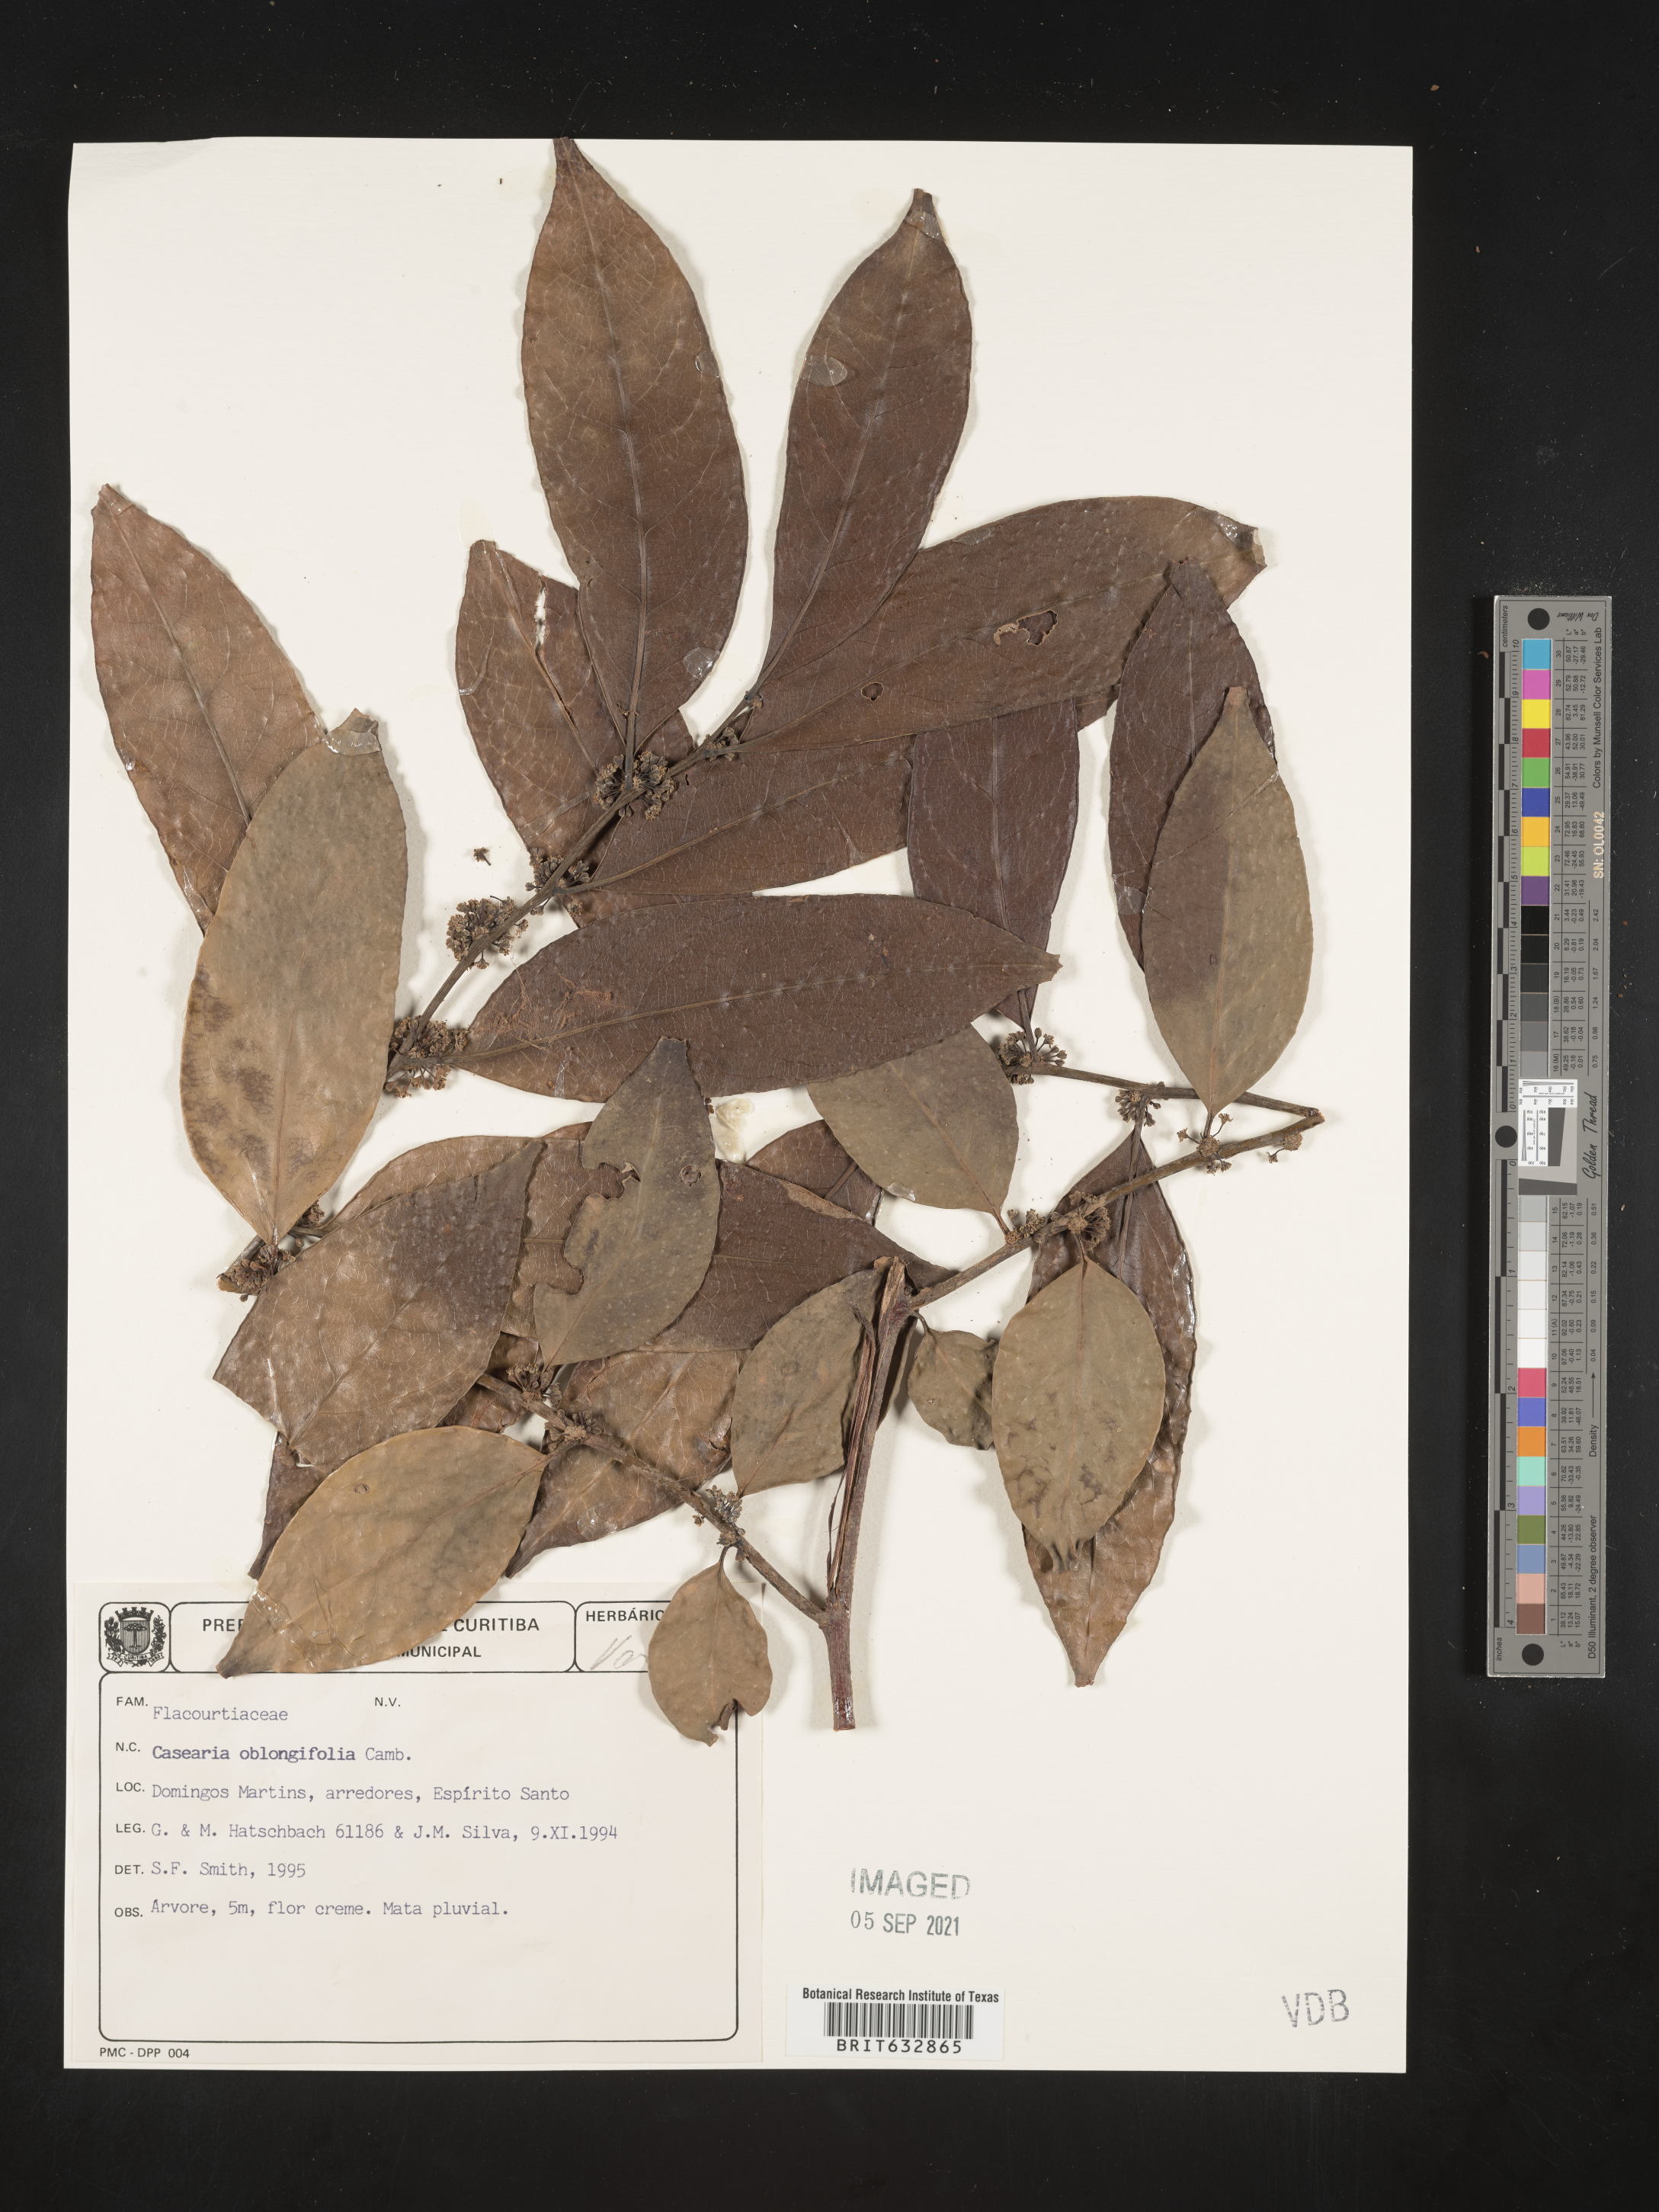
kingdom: Plantae
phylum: Tracheophyta
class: Magnoliopsida
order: Malpighiales
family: Salicaceae
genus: Casearia
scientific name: Casearia
